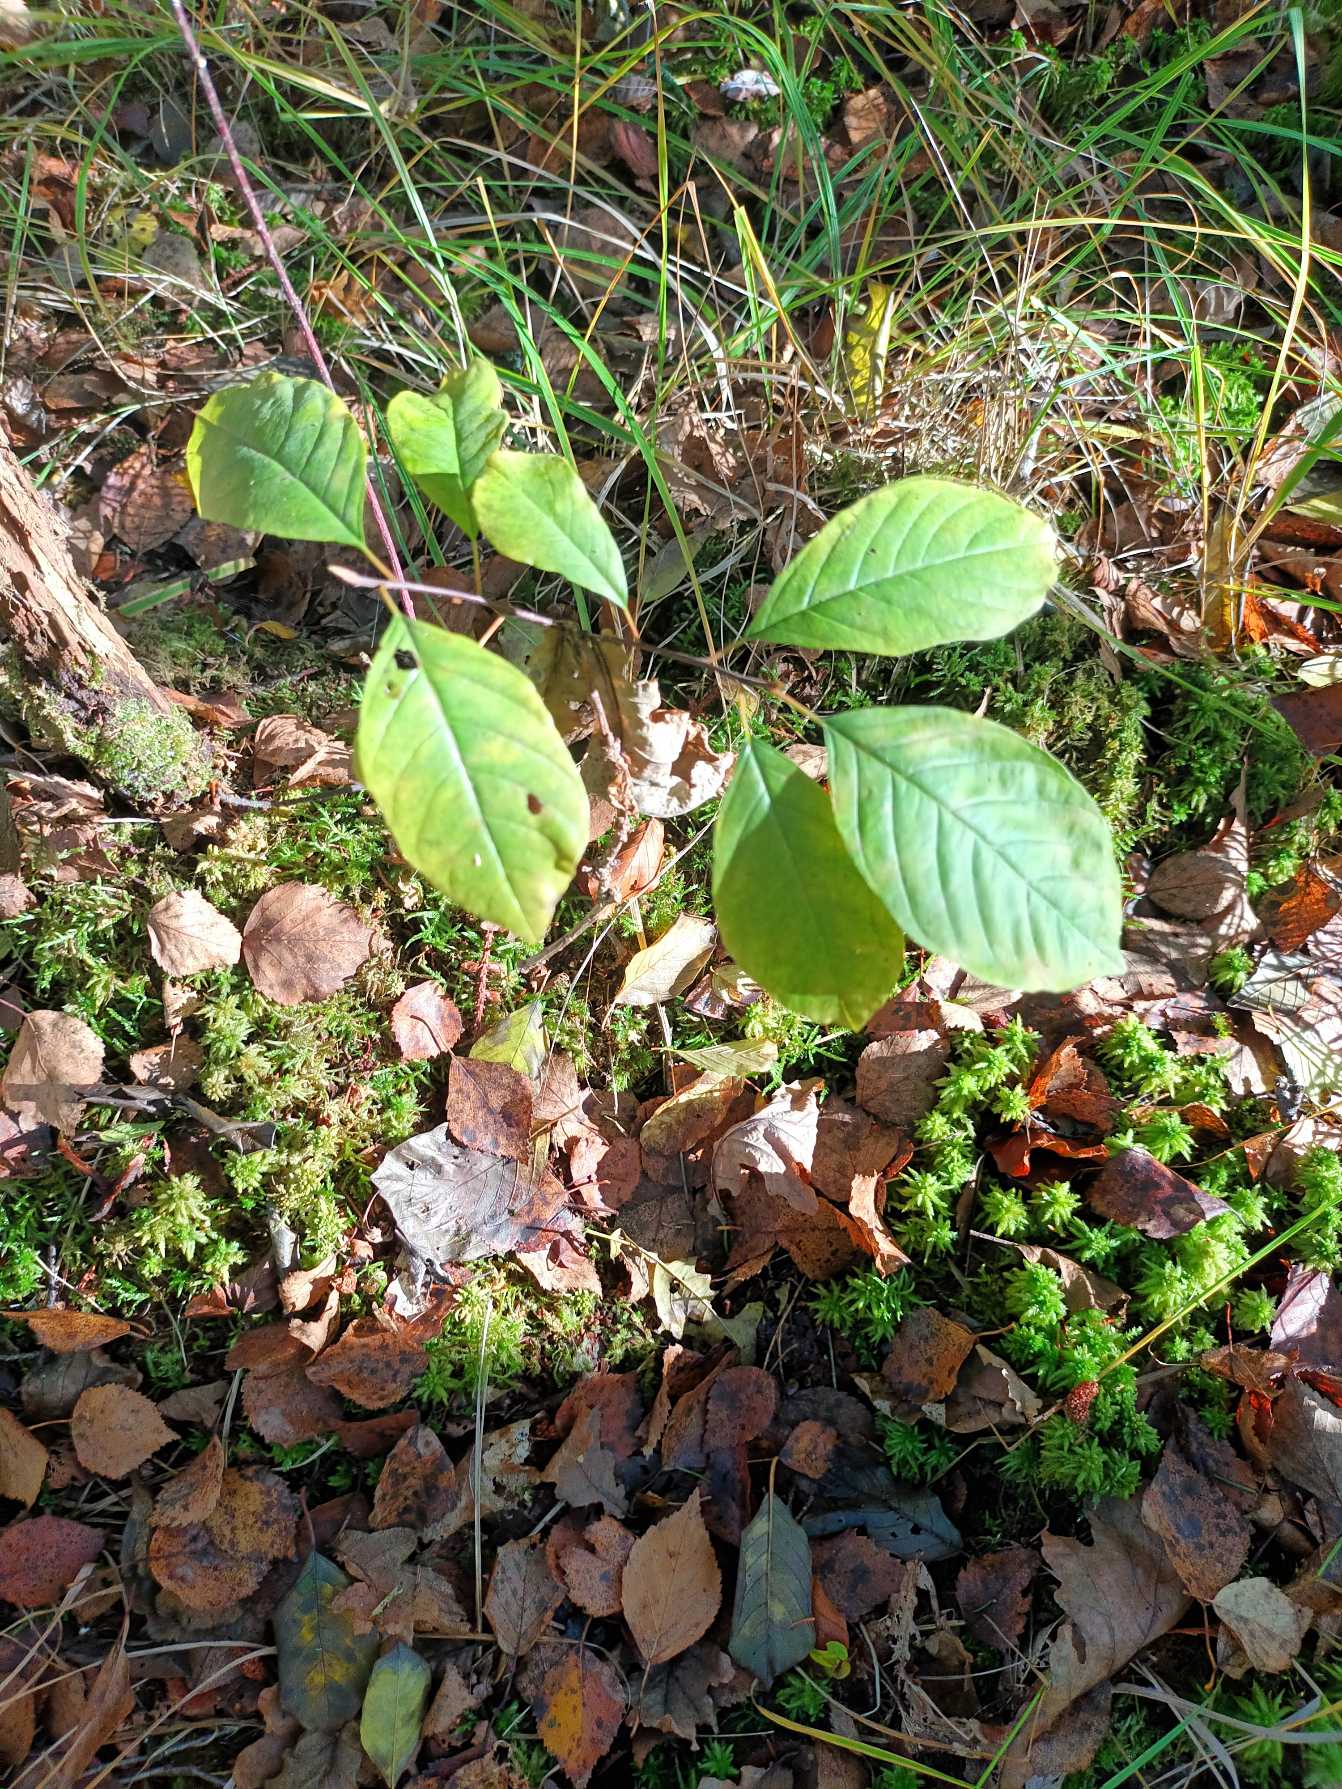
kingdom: Plantae
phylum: Tracheophyta
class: Magnoliopsida
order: Rosales
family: Rhamnaceae
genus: Frangula
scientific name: Frangula alnus
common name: Tørst
